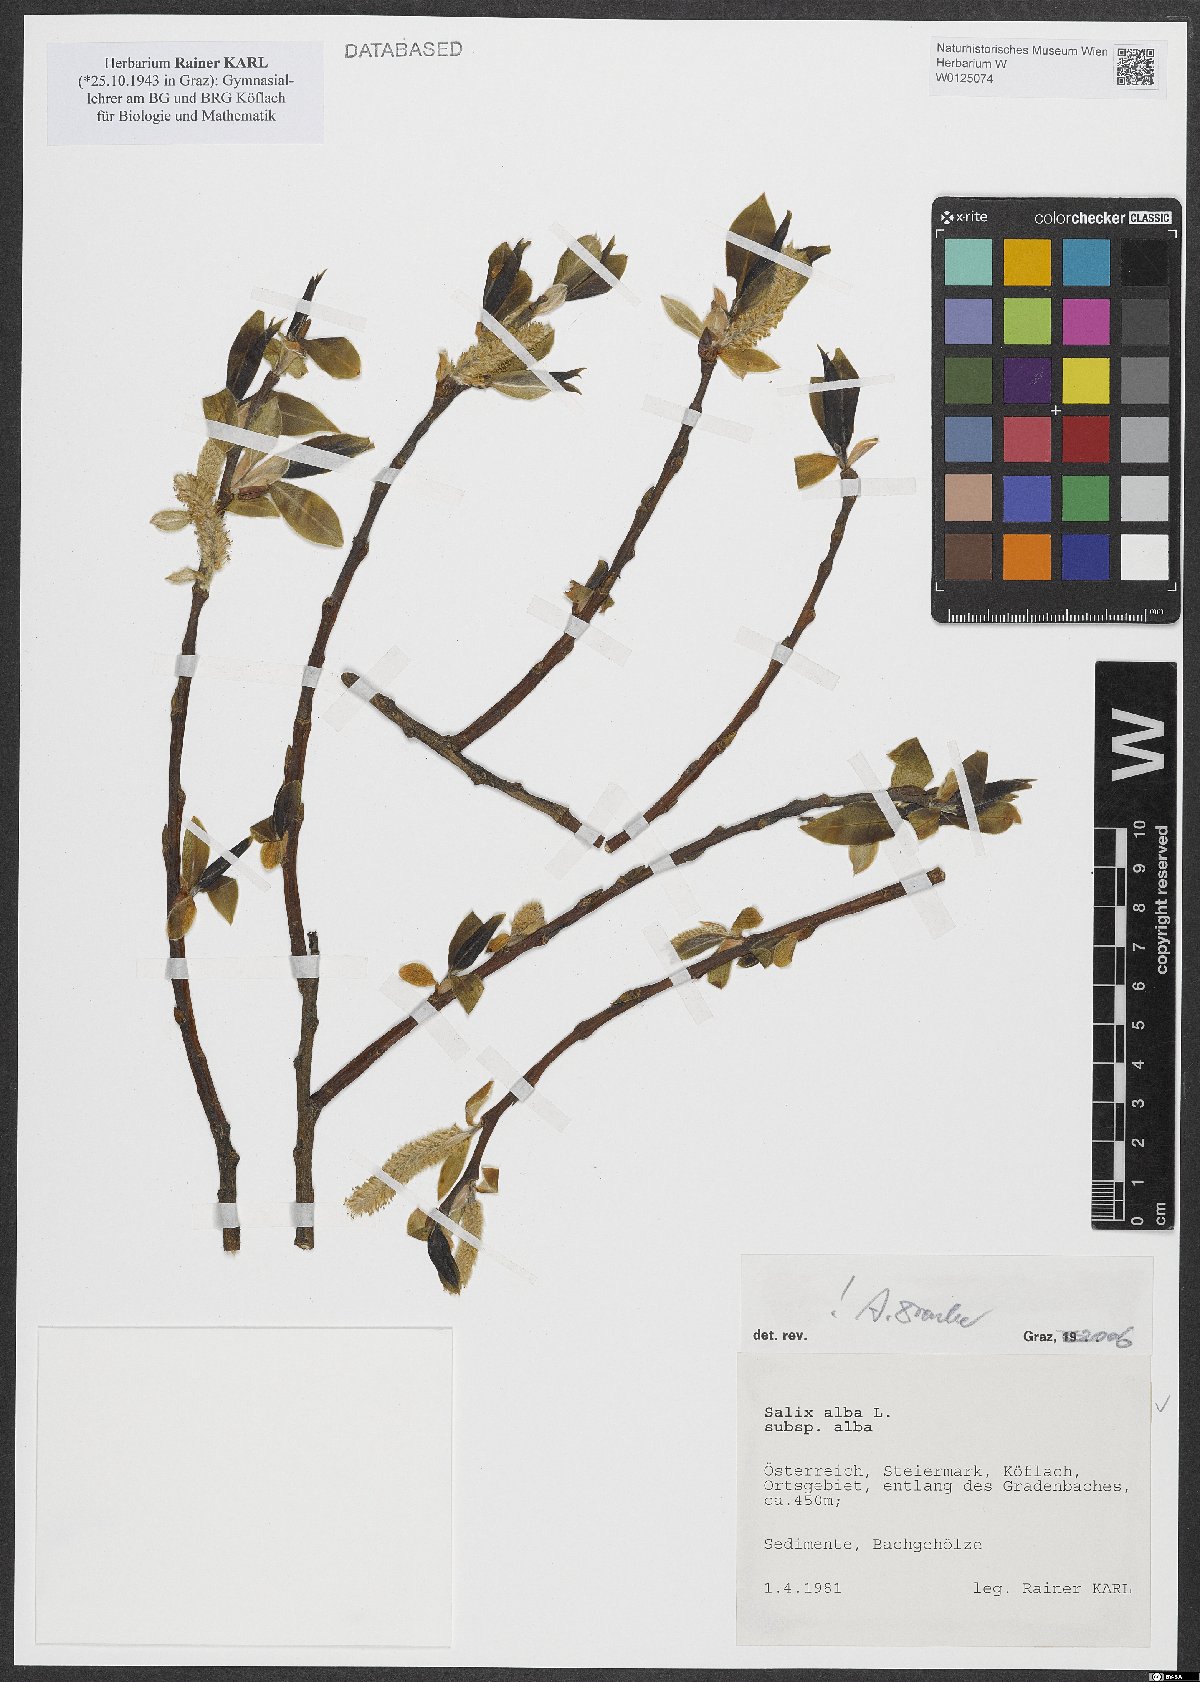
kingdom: Plantae
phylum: Tracheophyta
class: Magnoliopsida
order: Malpighiales
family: Salicaceae
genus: Salix
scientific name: Salix alba
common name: White willow
